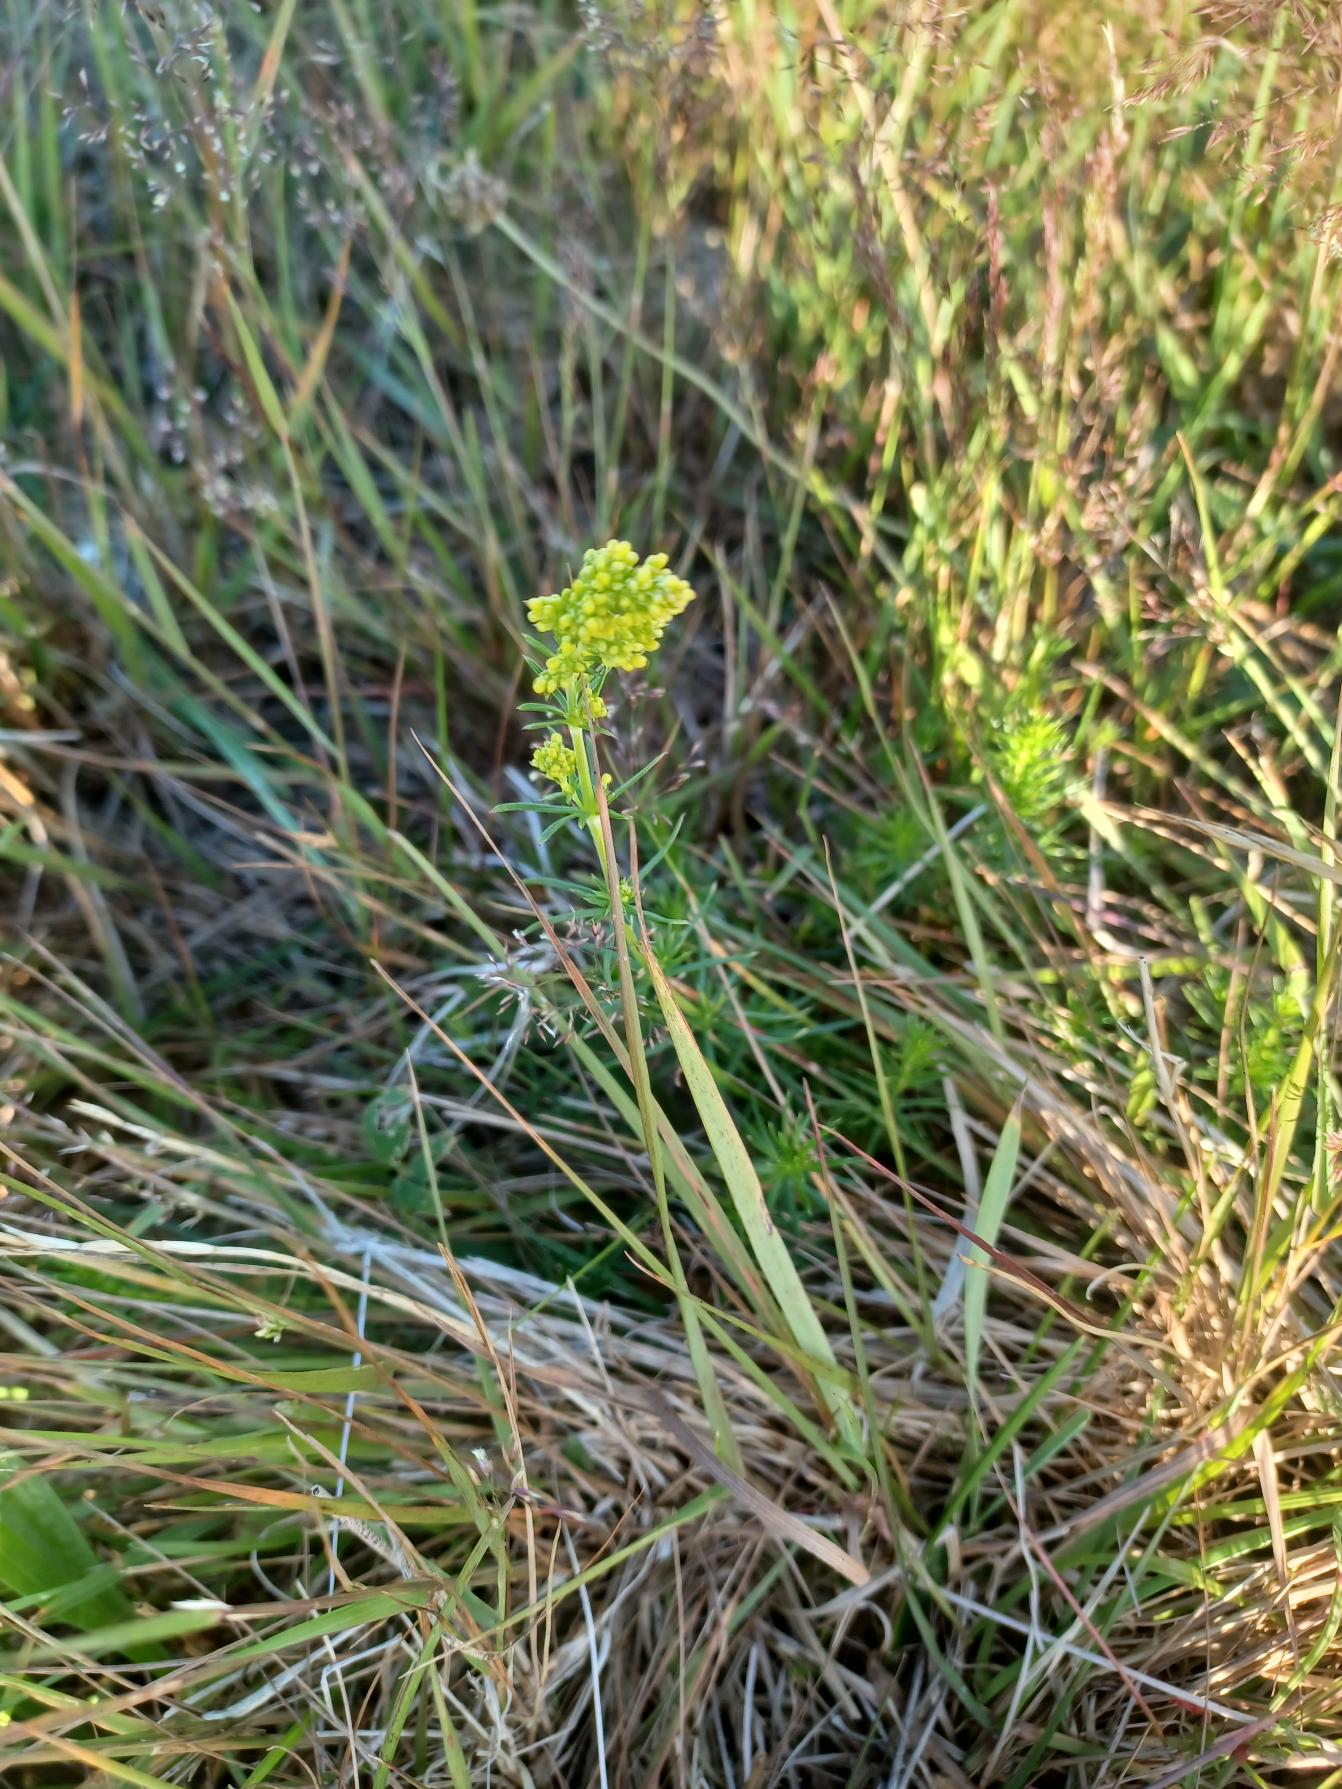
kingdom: Plantae
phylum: Tracheophyta
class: Magnoliopsida
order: Gentianales
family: Rubiaceae
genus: Galium
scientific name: Galium verum
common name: Gul snerre
